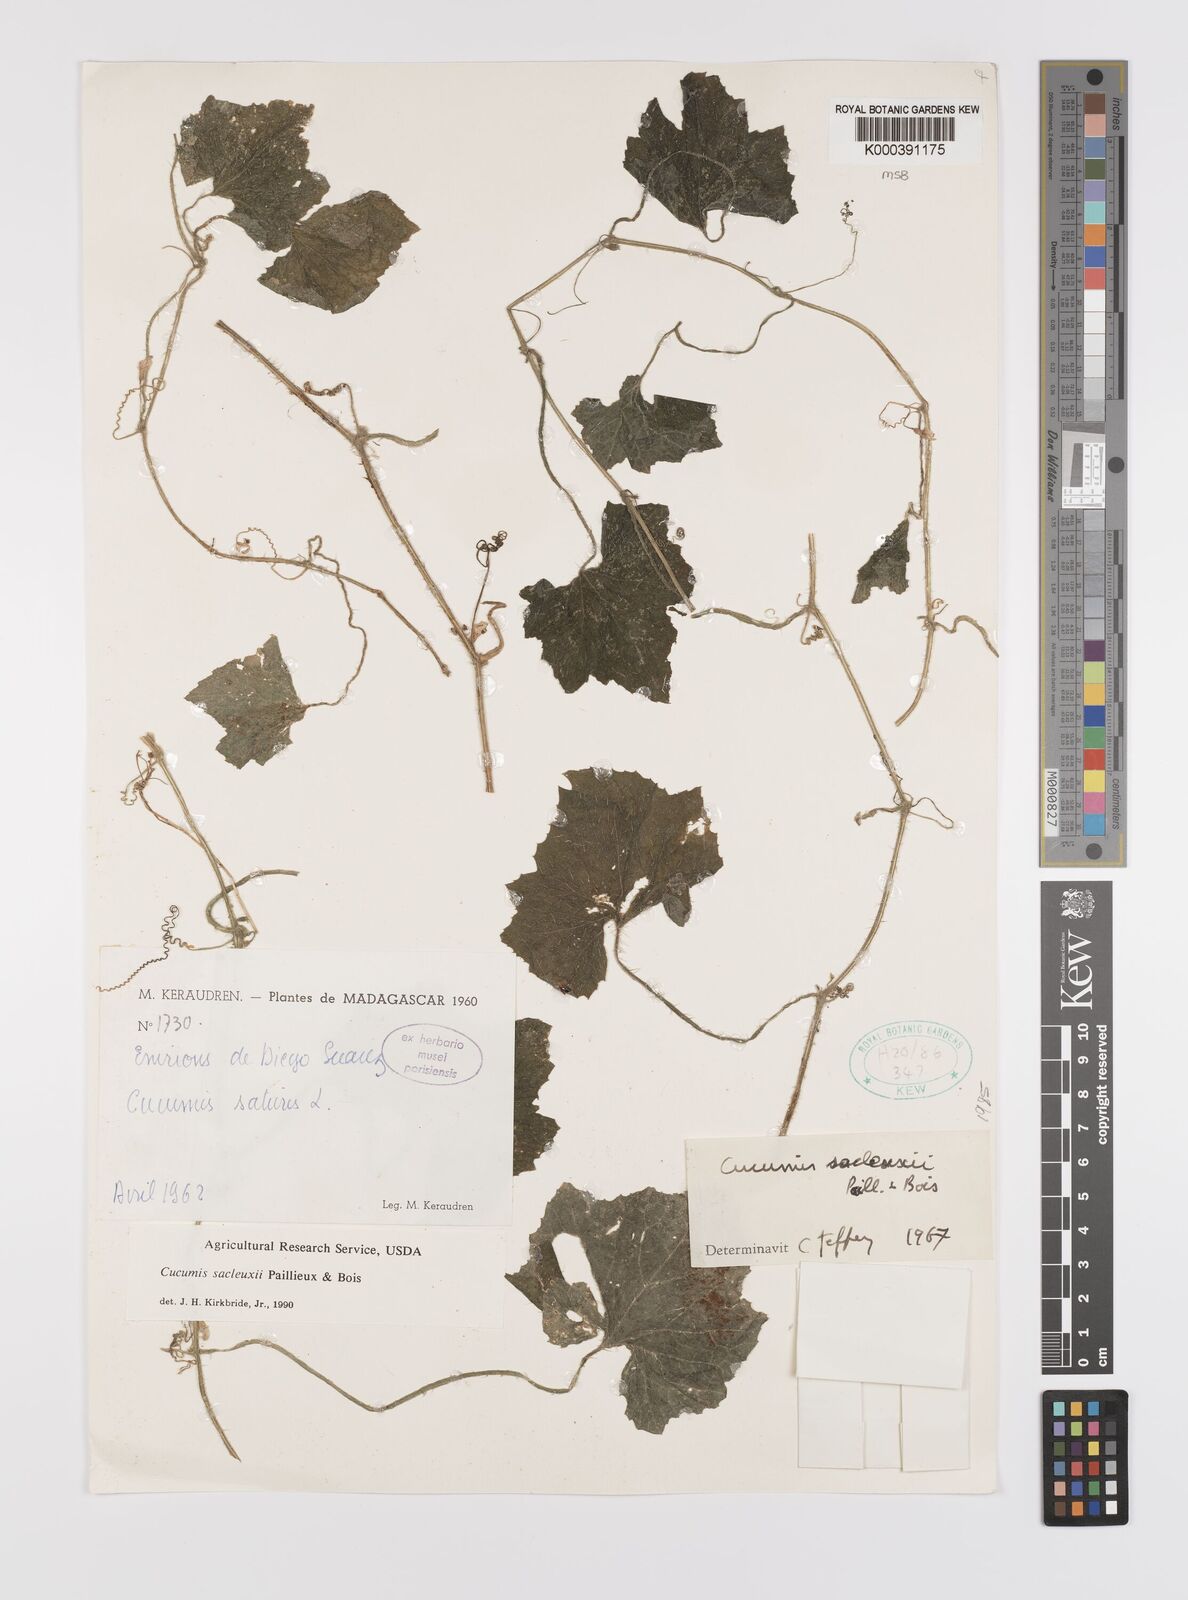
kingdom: Plantae
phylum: Tracheophyta
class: Magnoliopsida
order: Cucurbitales
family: Cucurbitaceae
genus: Cucumis
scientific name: Cucumis sacleuxii
